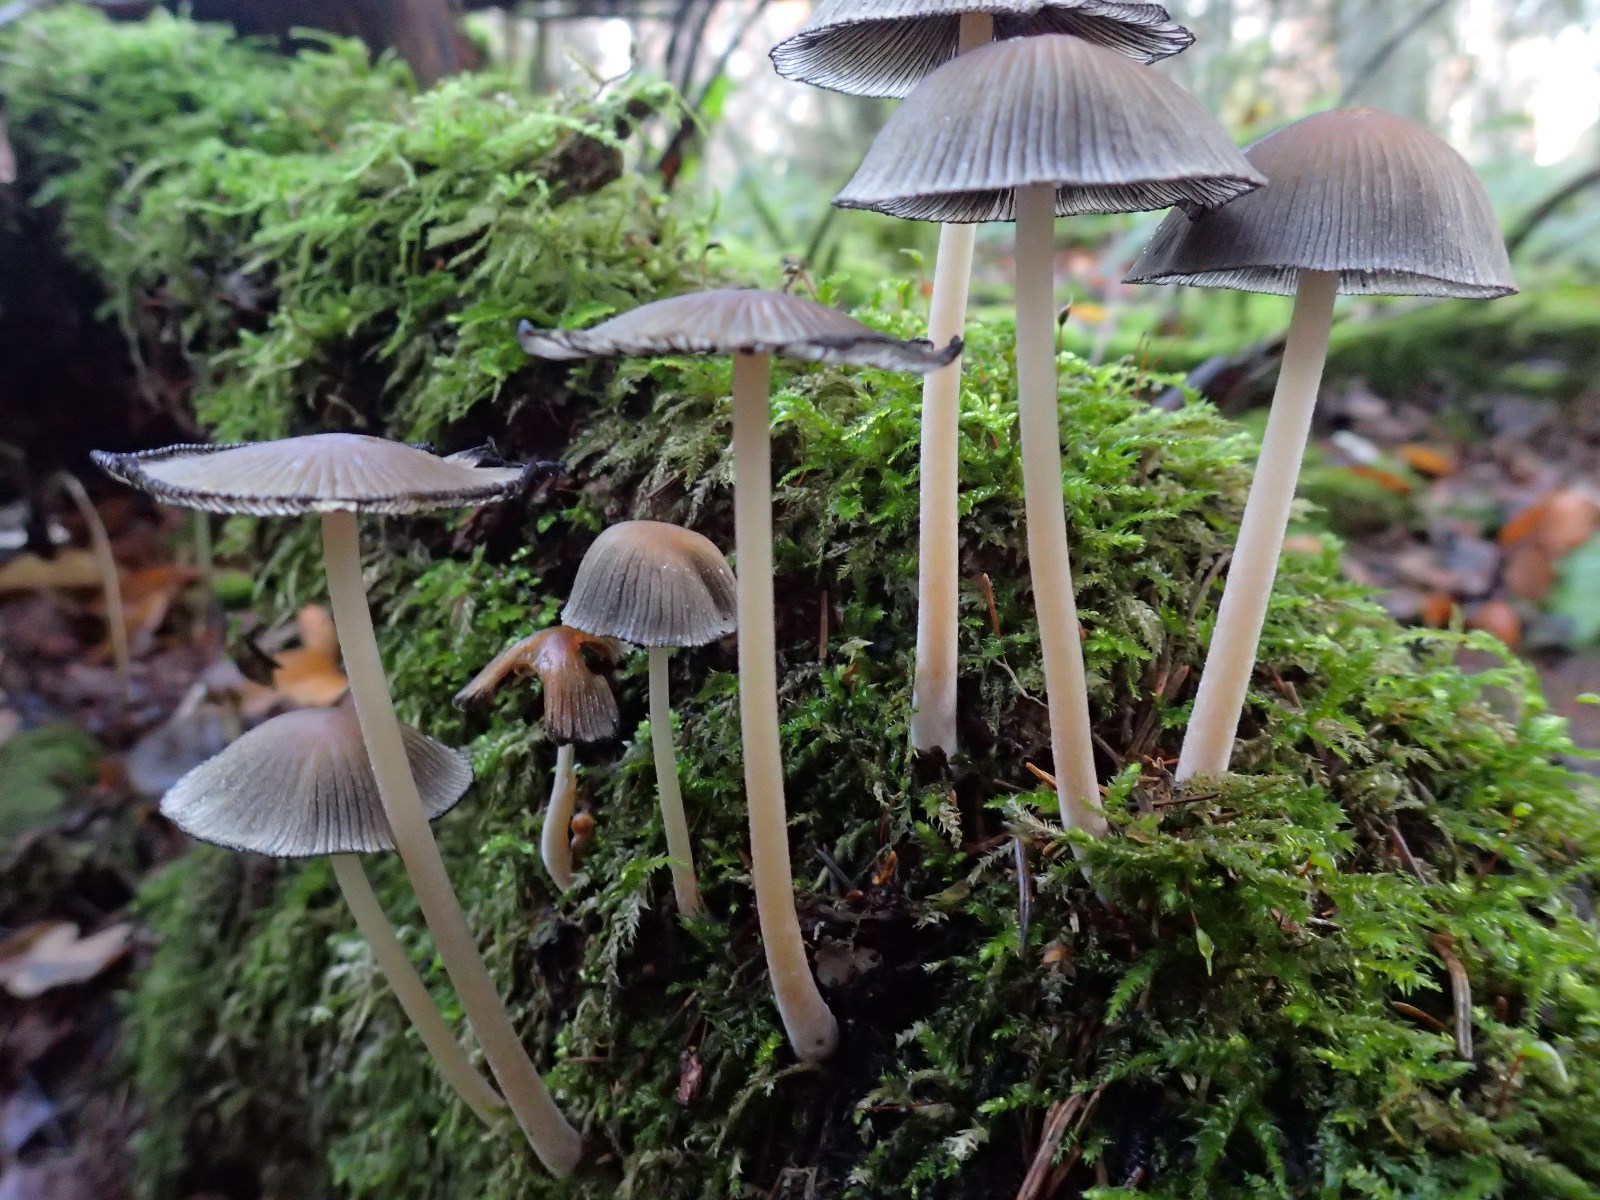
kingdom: Fungi
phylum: Basidiomycota
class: Agaricomycetes
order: Agaricales
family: Psathyrellaceae
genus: Coprinellus
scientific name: Coprinellus micaceus
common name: glimmer-blækhat
